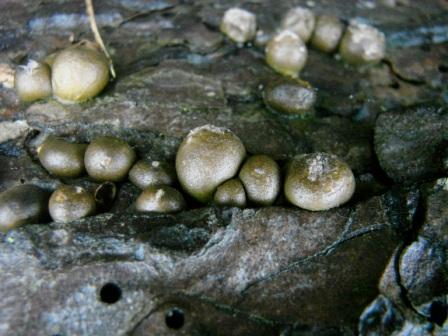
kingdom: Protozoa
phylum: Mycetozoa
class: Myxomycetes
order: Cribrariales
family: Tubiferaceae
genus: Lycogala
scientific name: Lycogala epidendrum
